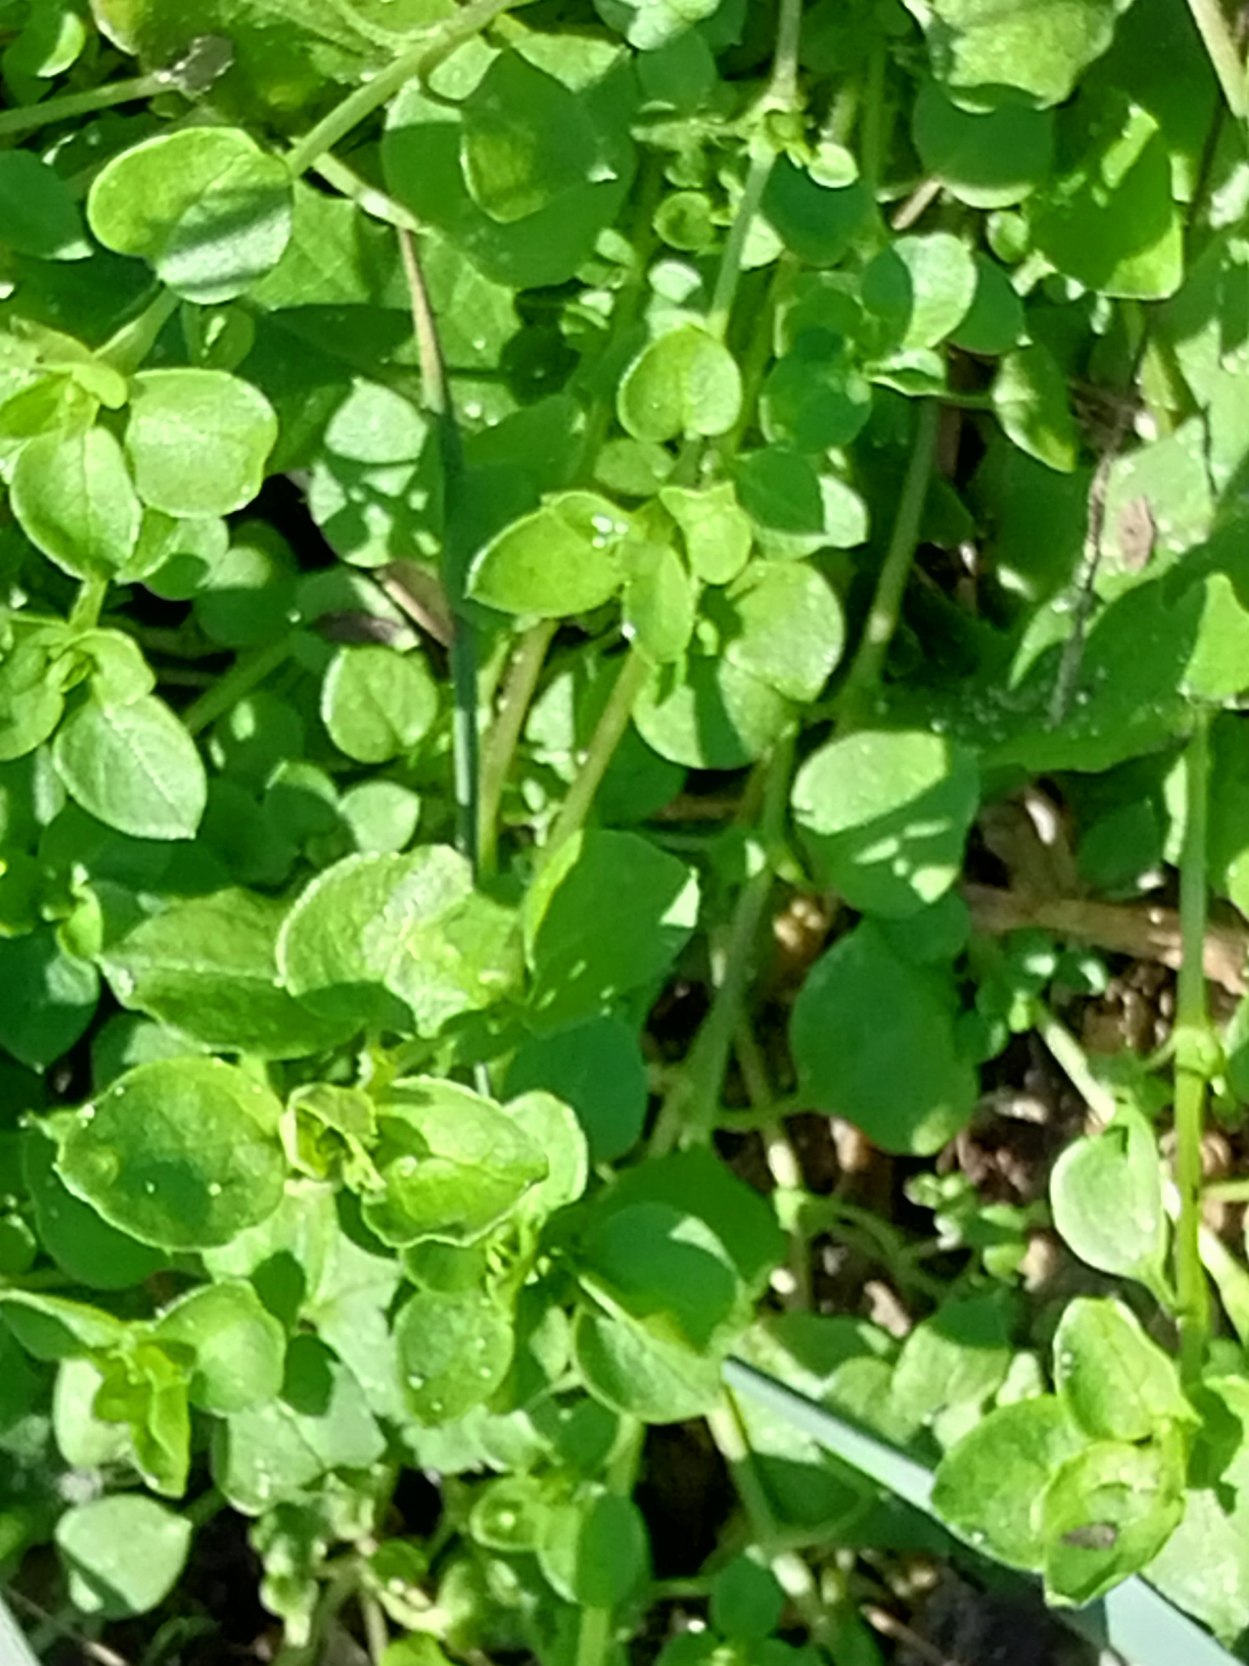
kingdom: Plantae
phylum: Tracheophyta
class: Magnoliopsida
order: Caryophyllales
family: Caryophyllaceae
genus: Stellaria
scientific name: Stellaria media
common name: Almindelig fuglegræs
